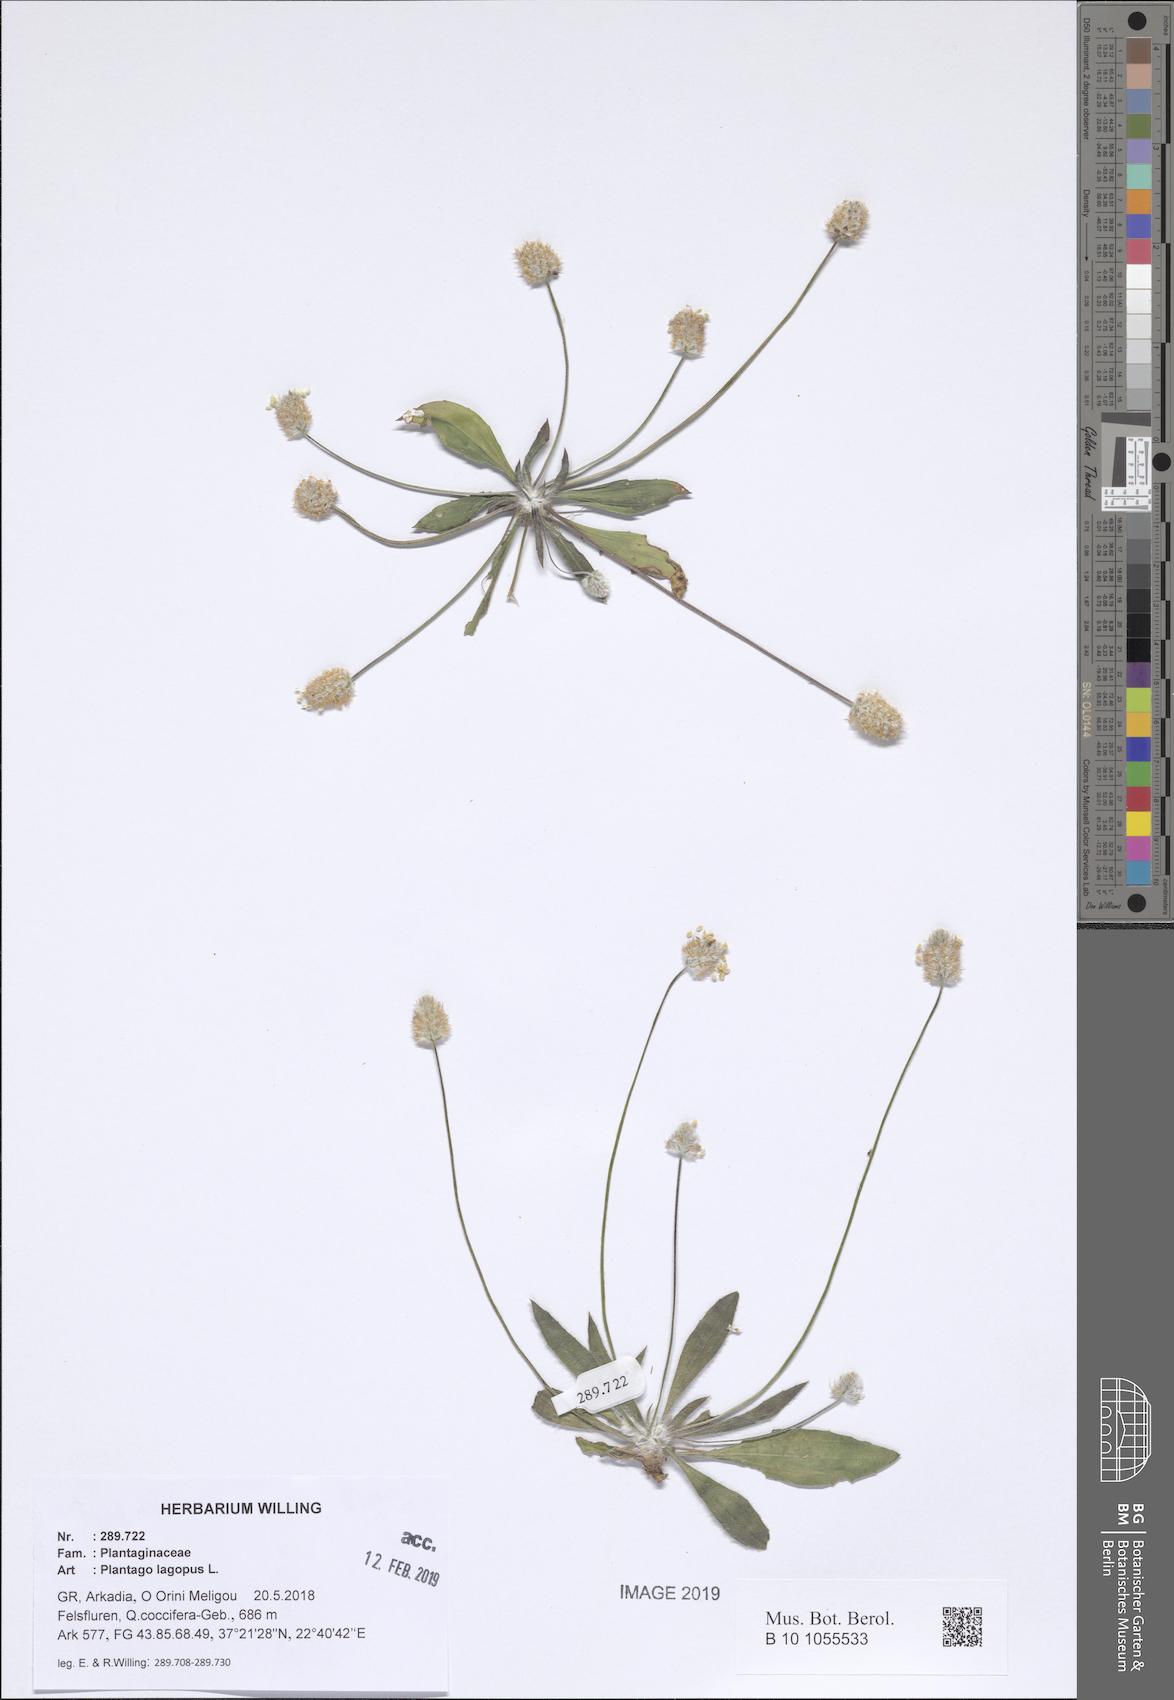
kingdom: Plantae
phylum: Tracheophyta
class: Magnoliopsida
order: Lamiales
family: Plantaginaceae
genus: Plantago
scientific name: Plantago lagopus
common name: Hare-foot plantain
